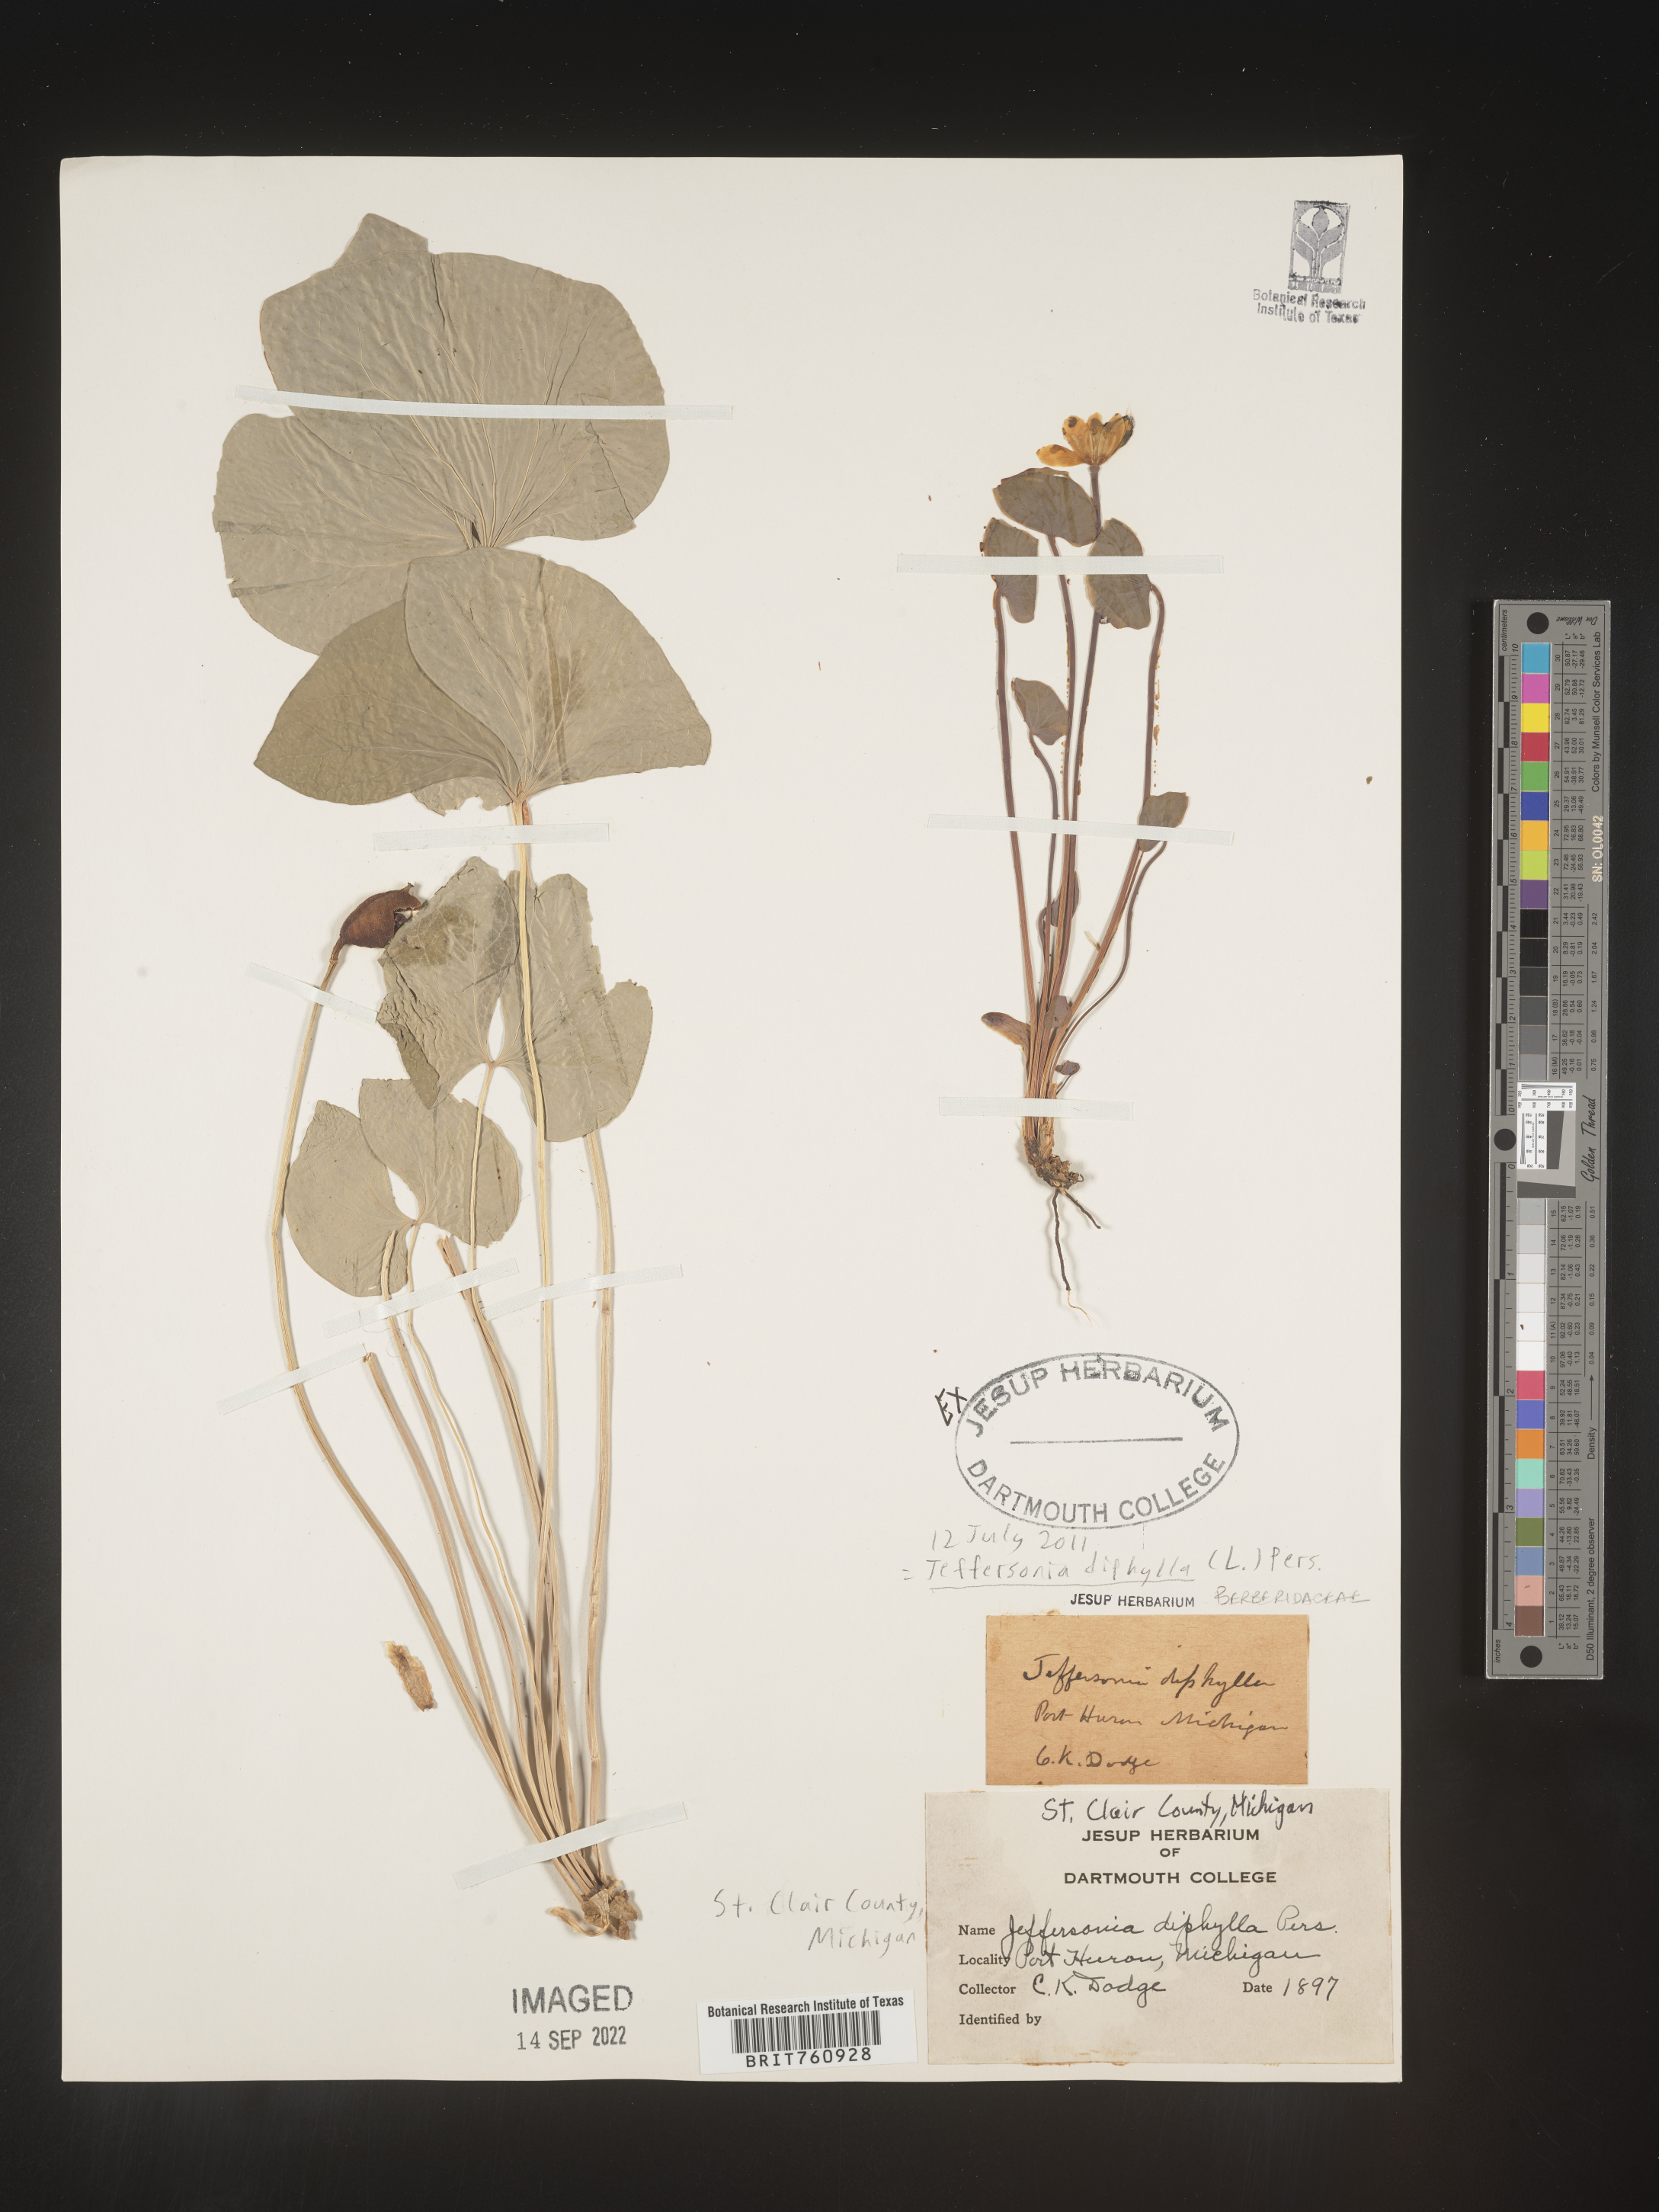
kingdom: Plantae
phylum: Tracheophyta
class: Magnoliopsida
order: Ranunculales
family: Berberidaceae
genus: Jeffersonia
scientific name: Jeffersonia
